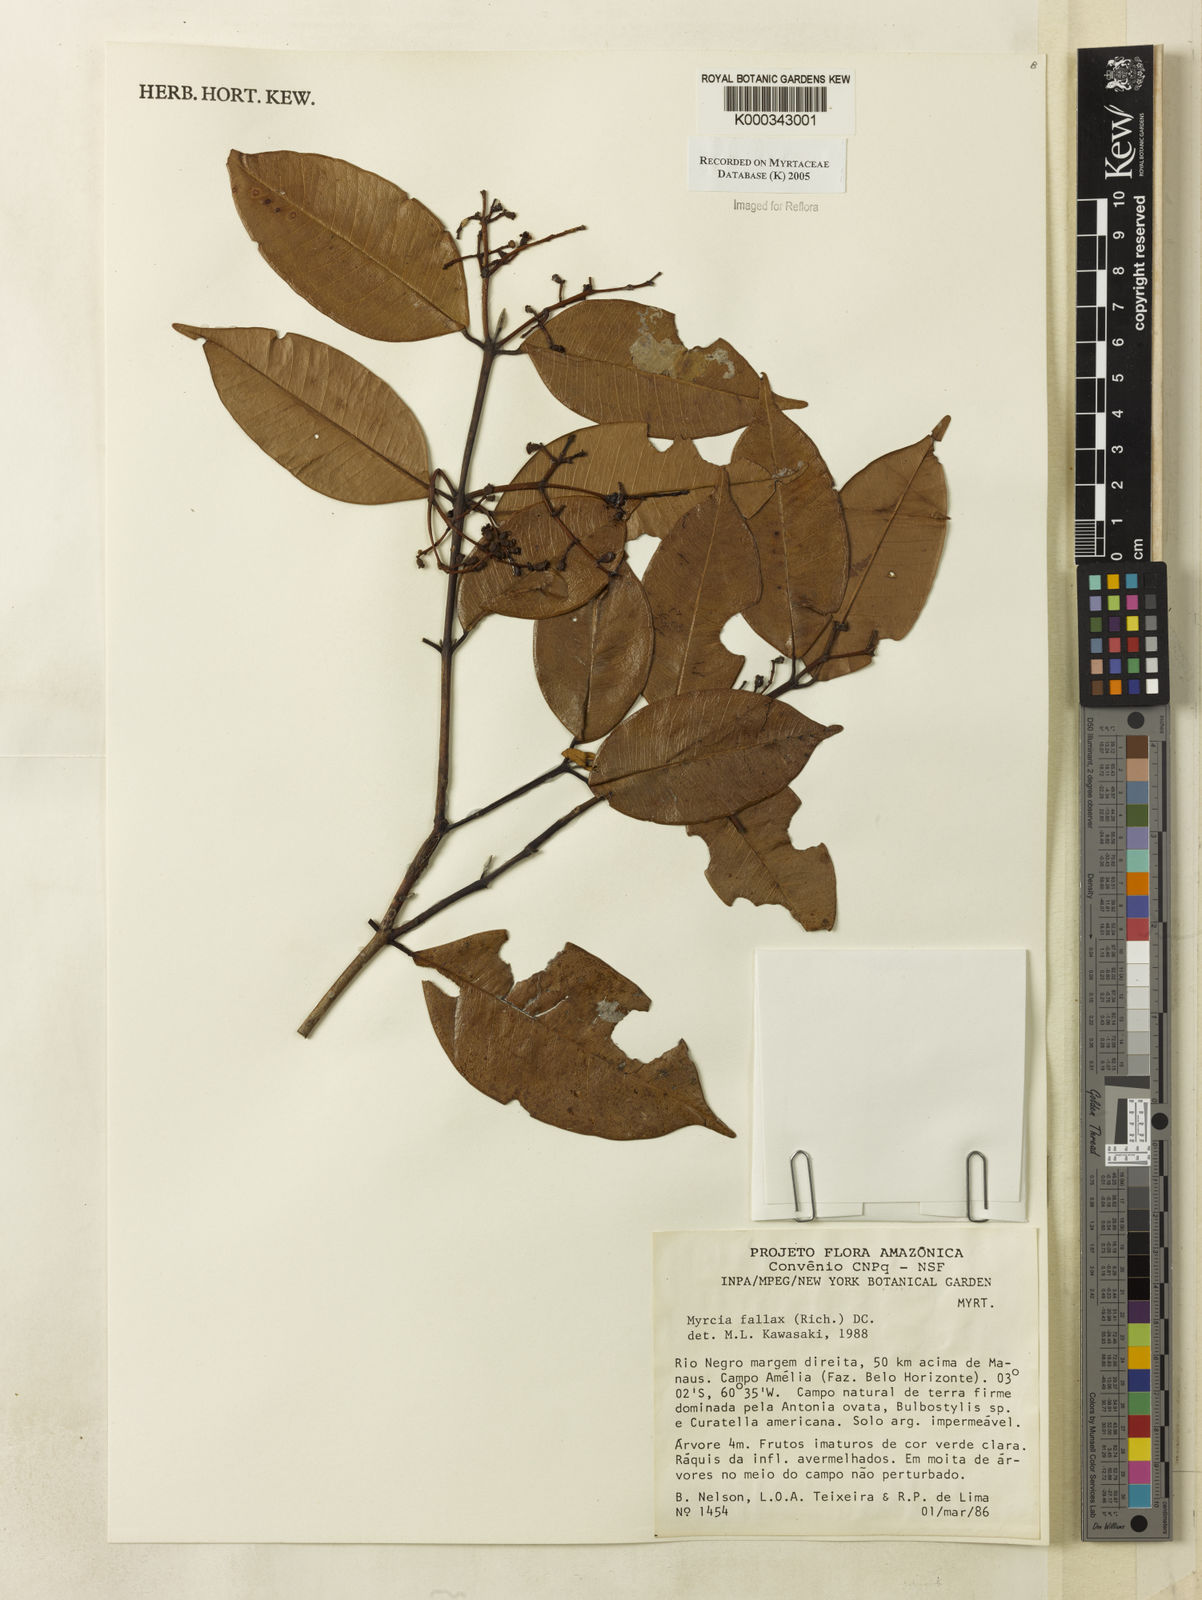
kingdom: Plantae
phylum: Tracheophyta
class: Magnoliopsida
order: Myrtales
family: Myrtaceae
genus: Myrcia
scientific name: Myrcia splendens
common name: Surinam cherry
